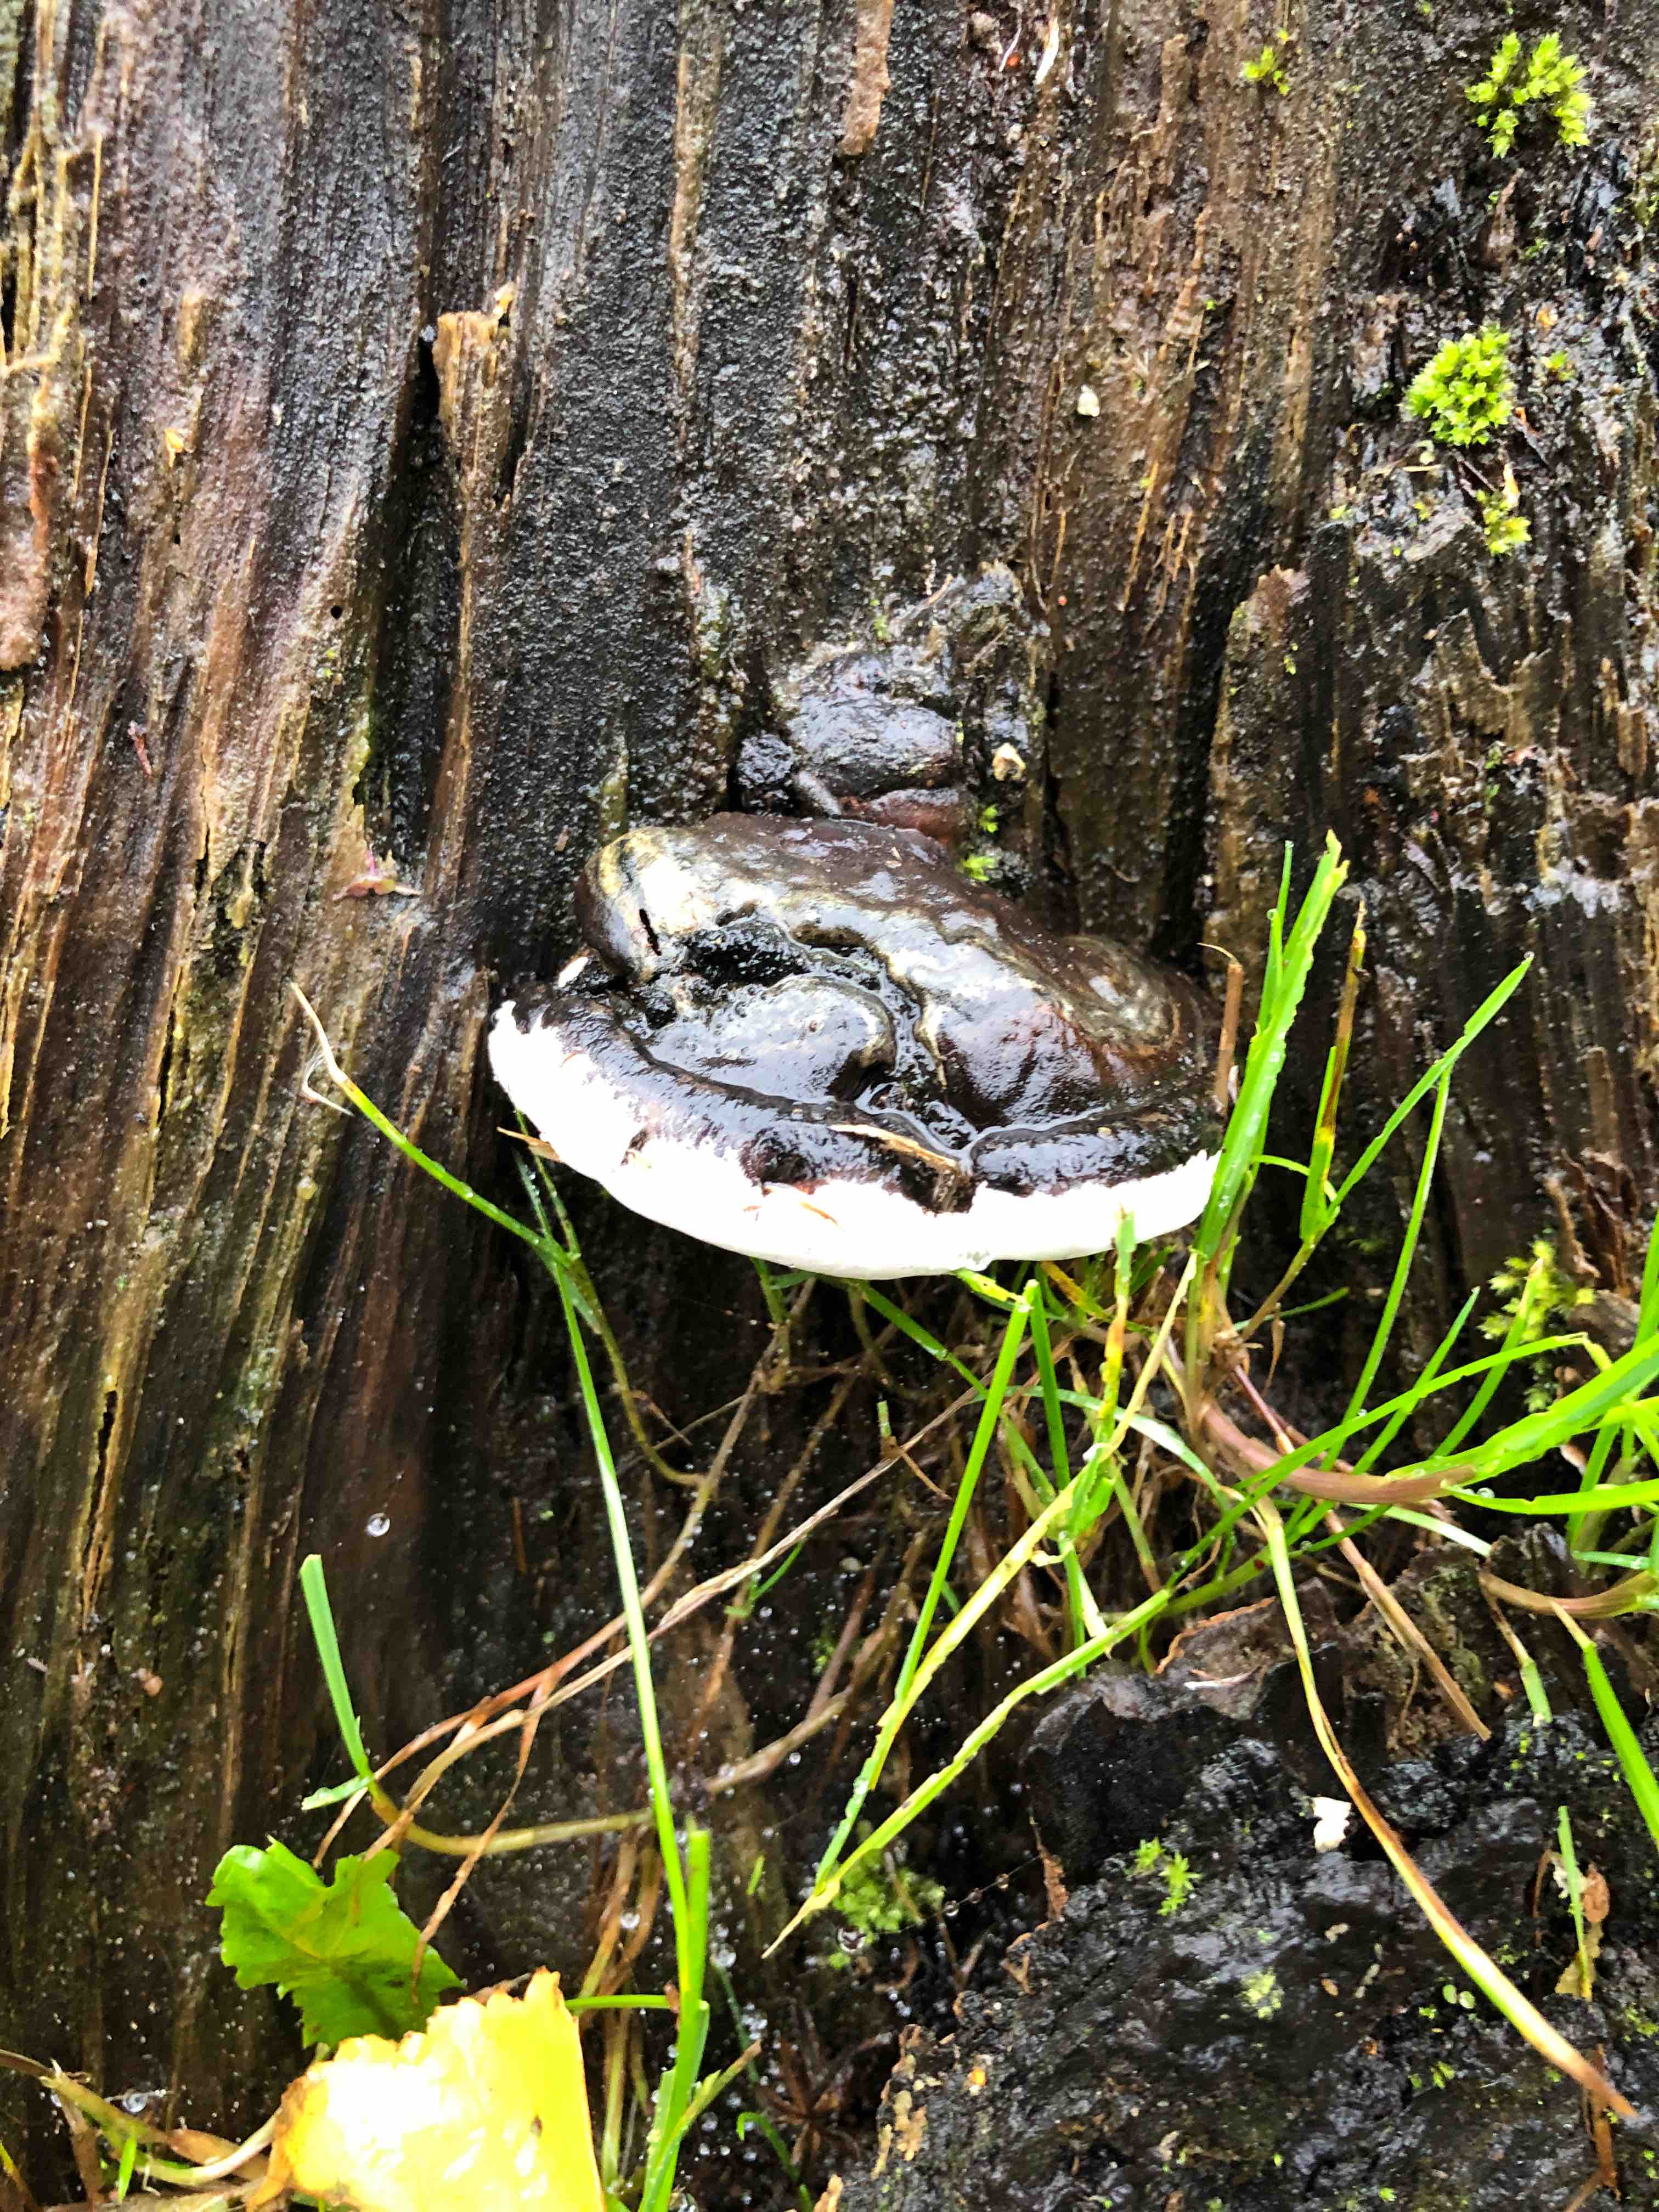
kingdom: Fungi
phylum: Basidiomycota
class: Agaricomycetes
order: Polyporales
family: Polyporaceae
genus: Ganoderma
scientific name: Ganoderma applanatum
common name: flad lakporesvamp
